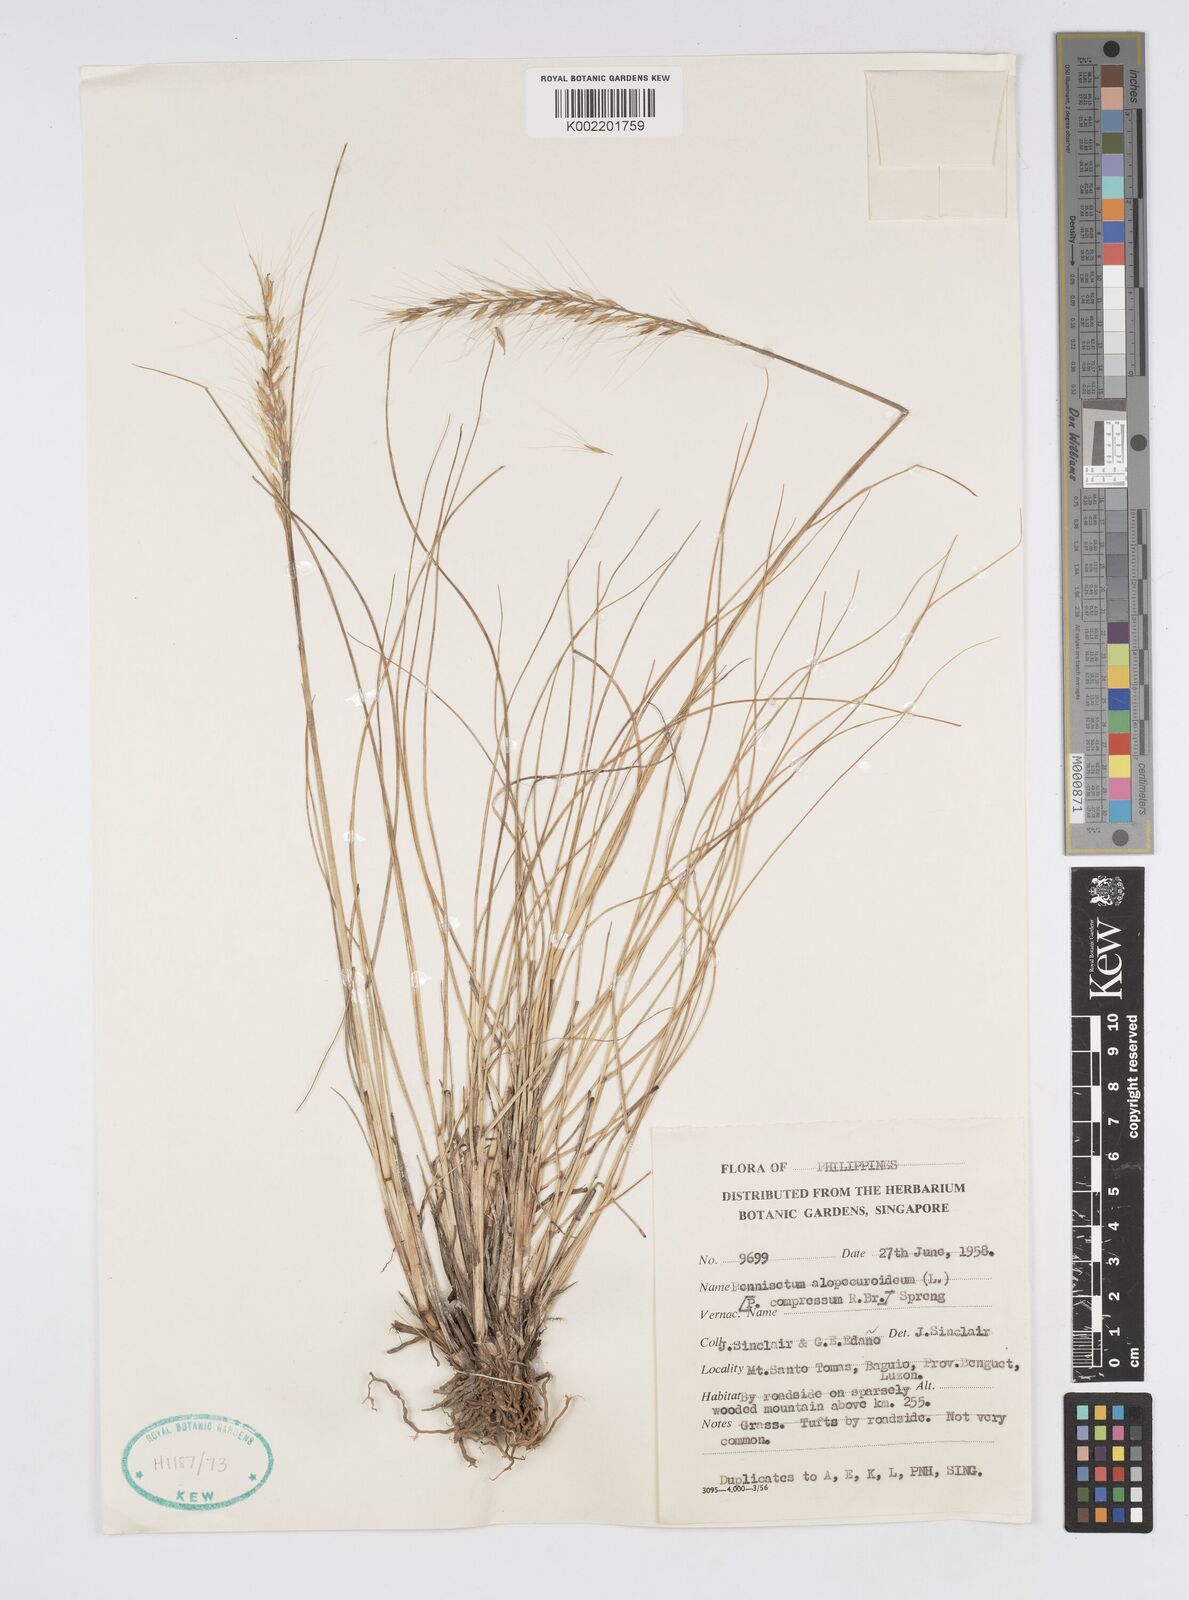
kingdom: Plantae
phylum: Tracheophyta
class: Liliopsida
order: Poales
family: Poaceae
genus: Cenchrus
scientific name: Cenchrus setosus
